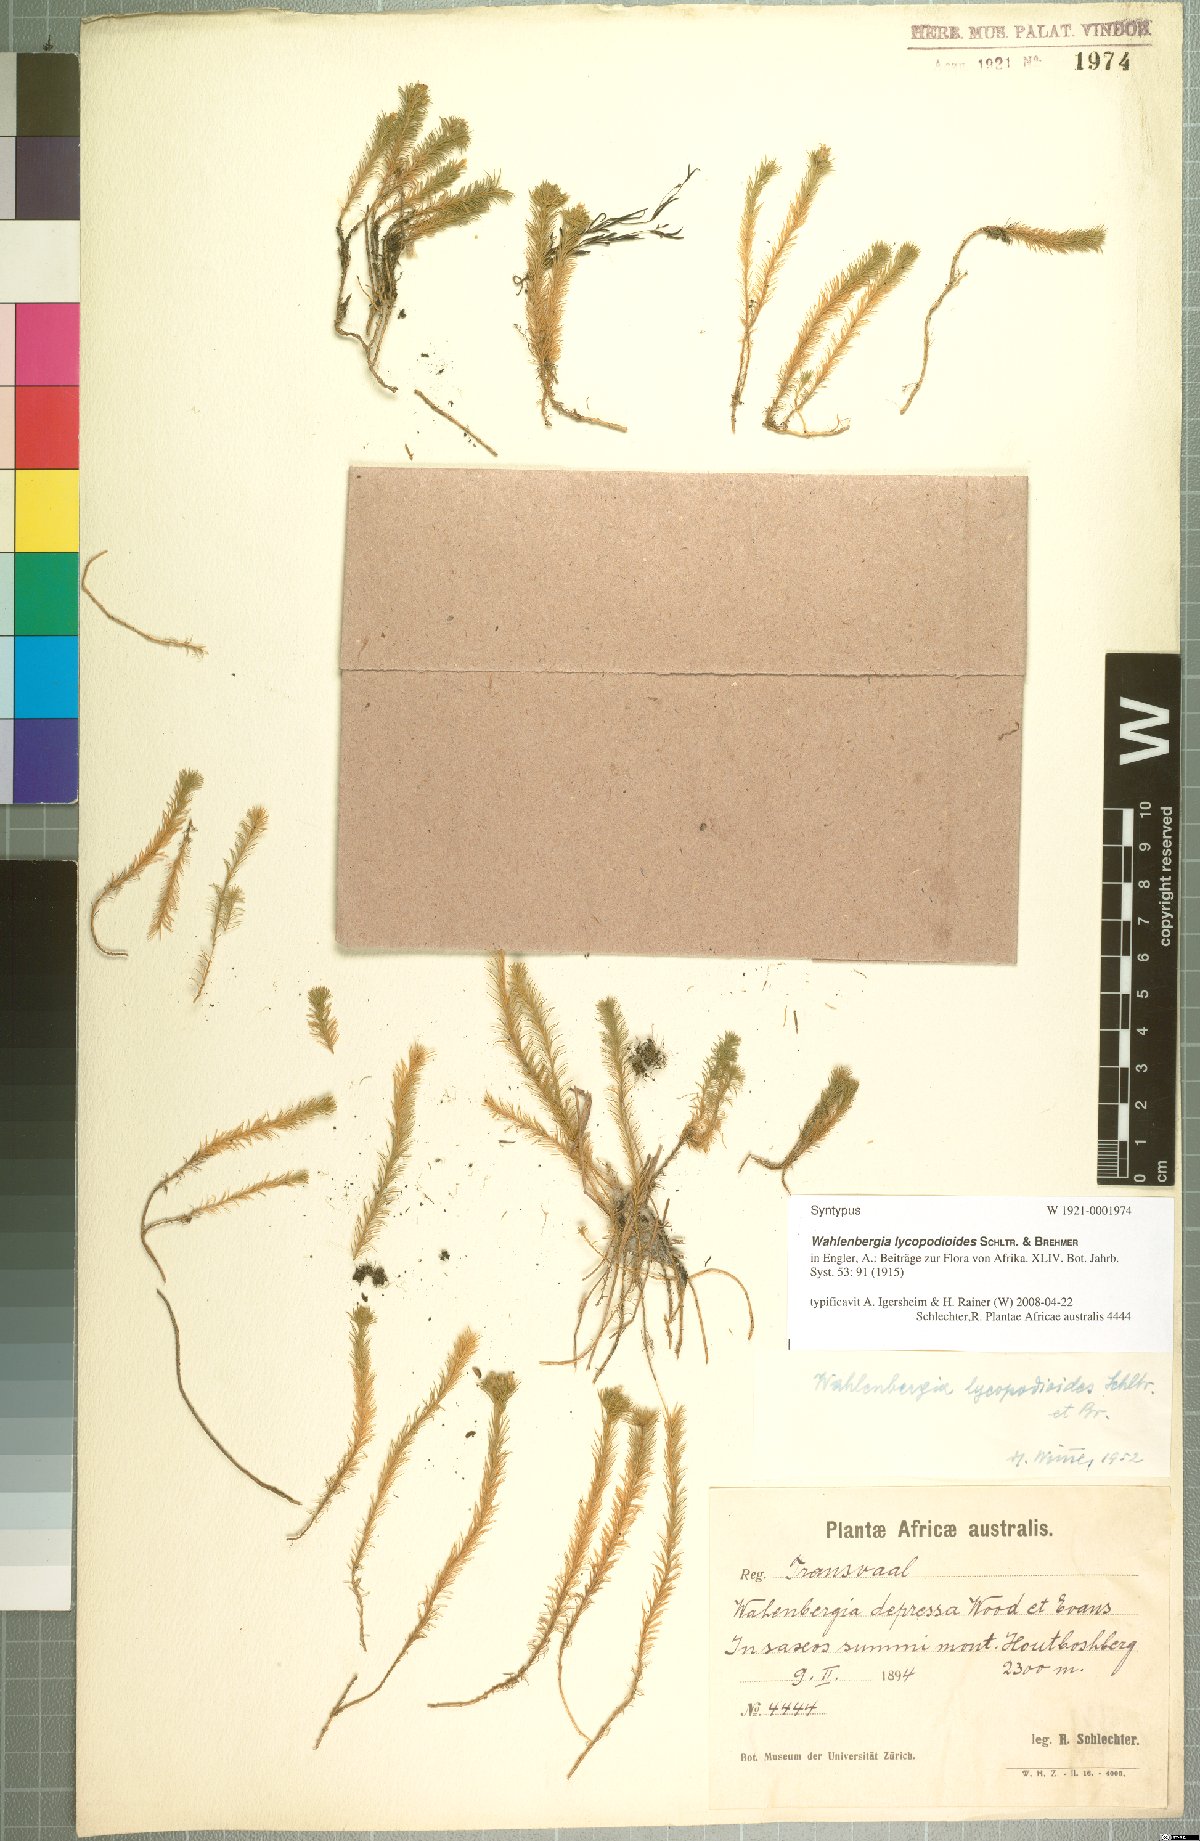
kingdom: Plantae
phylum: Tracheophyta
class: Magnoliopsida
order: Asterales
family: Campanulaceae
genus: Wahlenbergia
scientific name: Wahlenbergia lycopodioides
